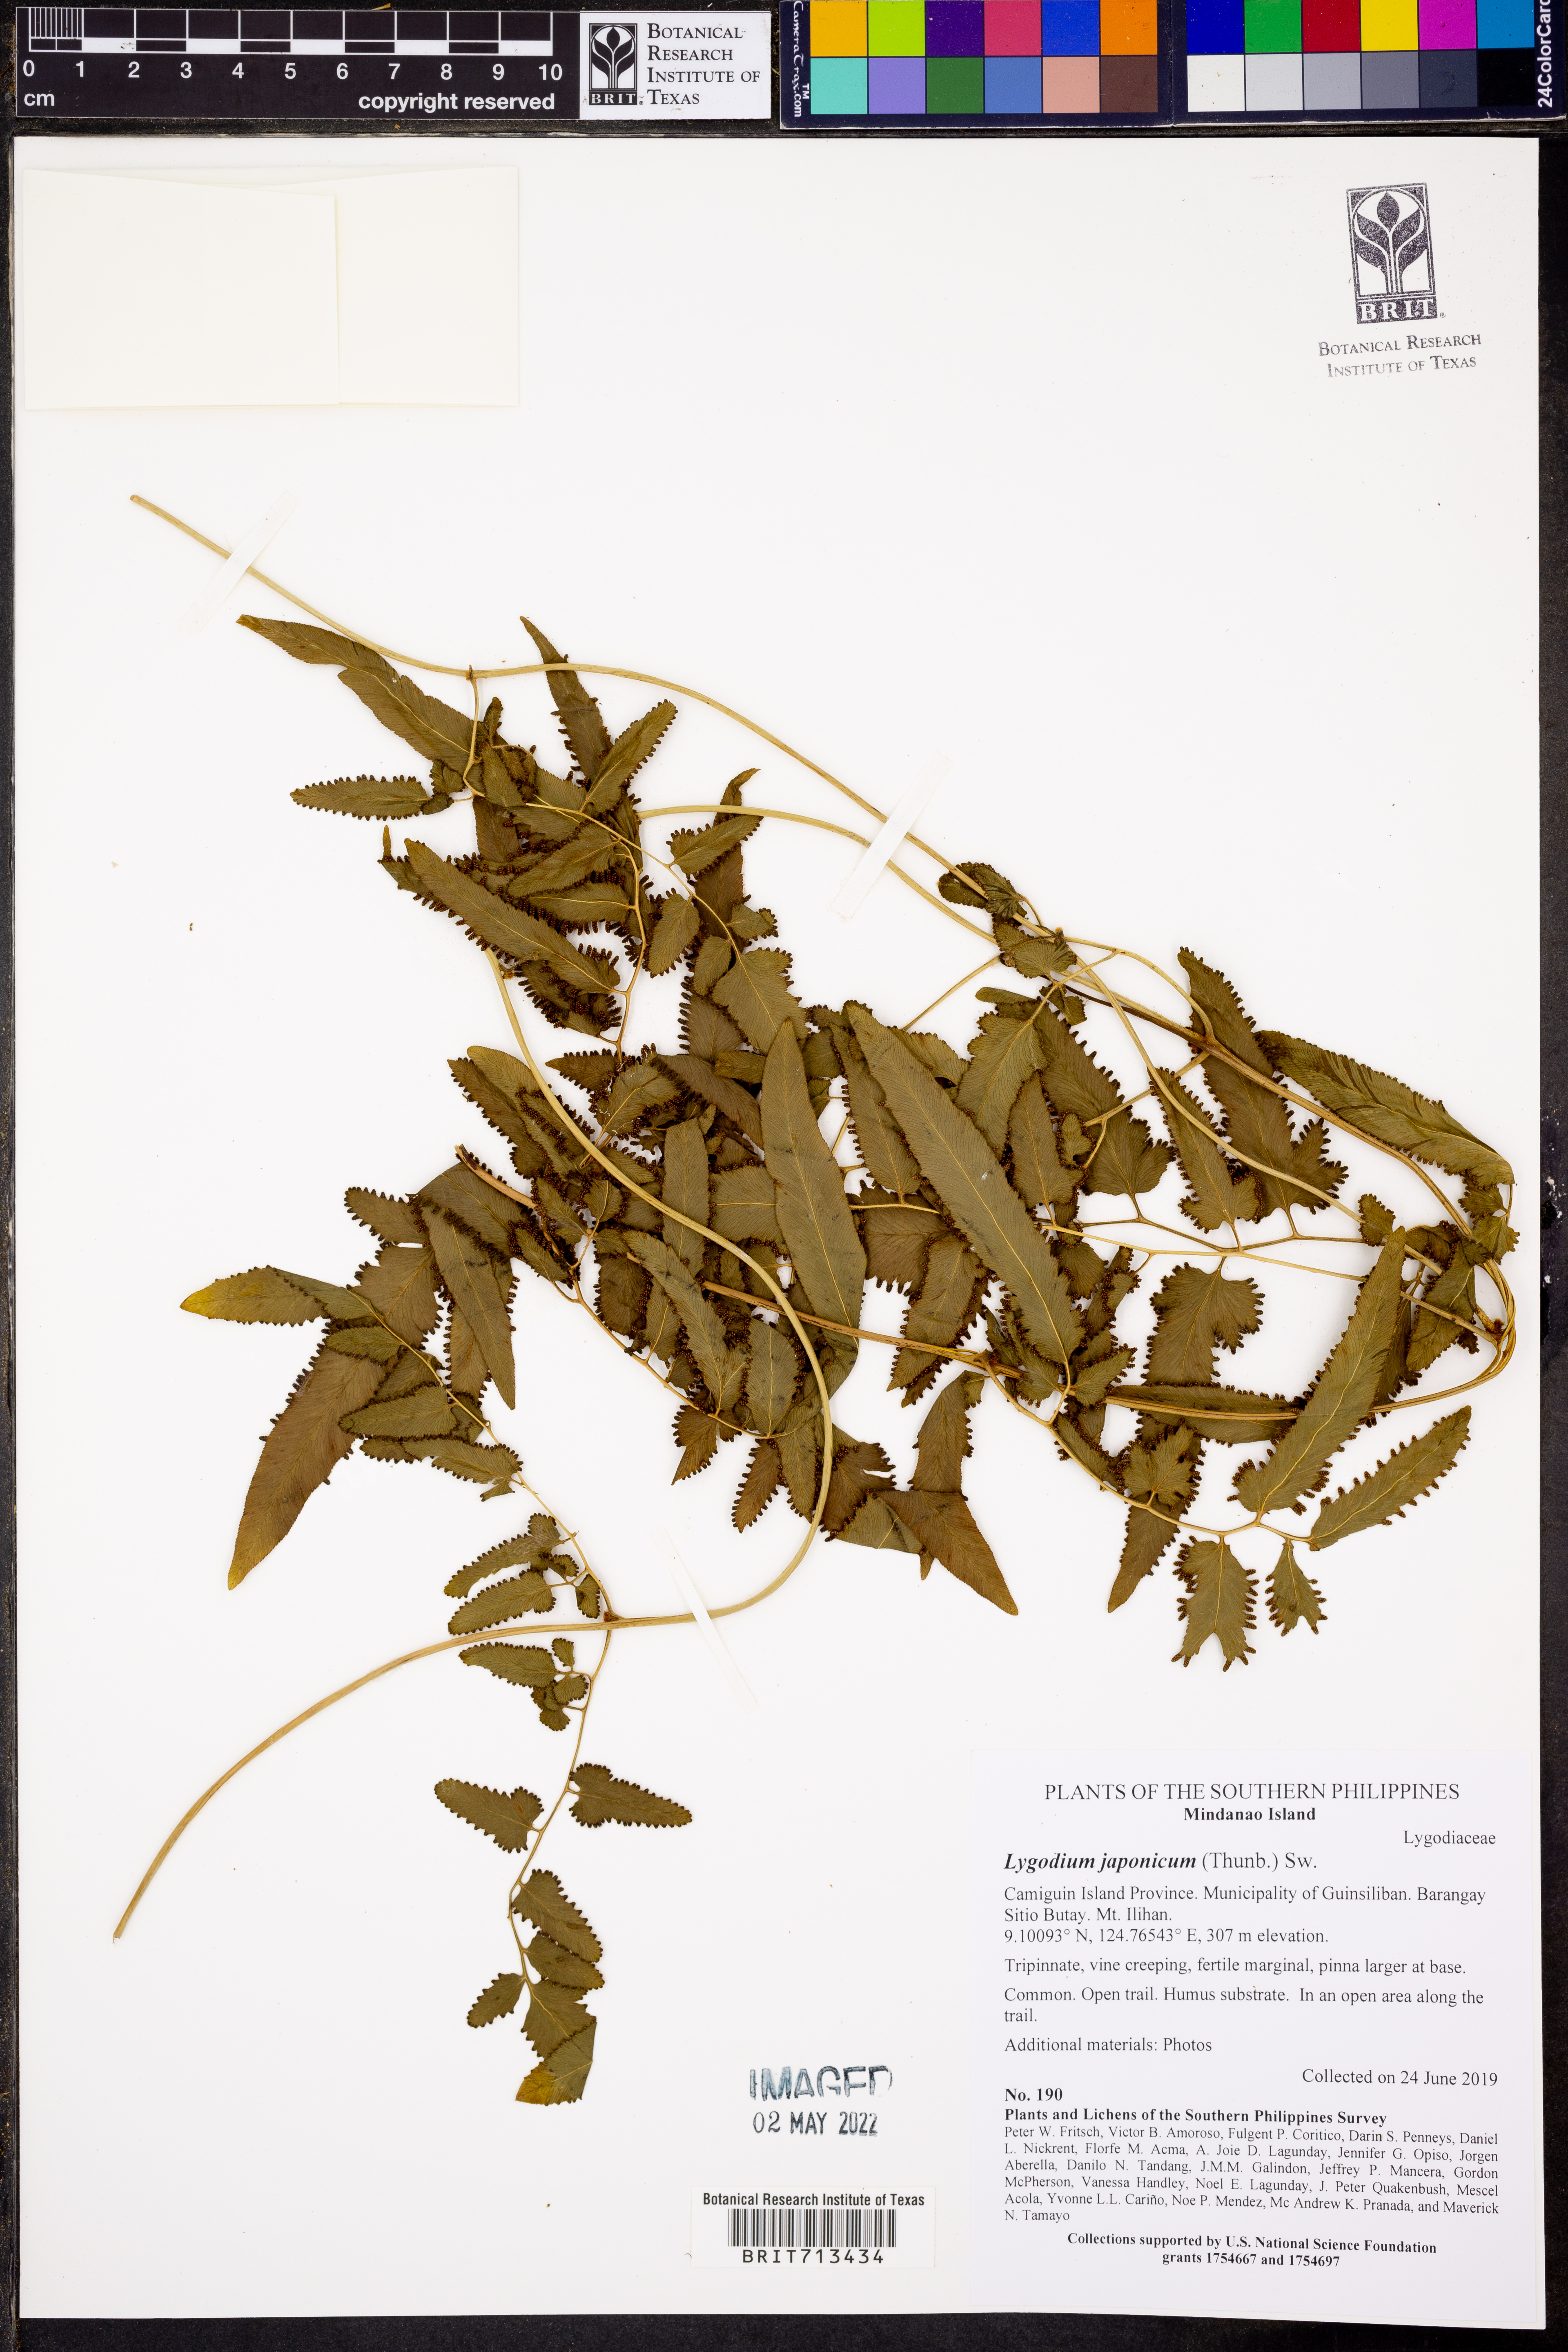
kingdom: Plantae
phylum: Tracheophyta
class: Polypodiopsida
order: Schizaeales
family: Lygodiaceae
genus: Lygodium
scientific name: Lygodium japonicum
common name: Japanese climbing fern
